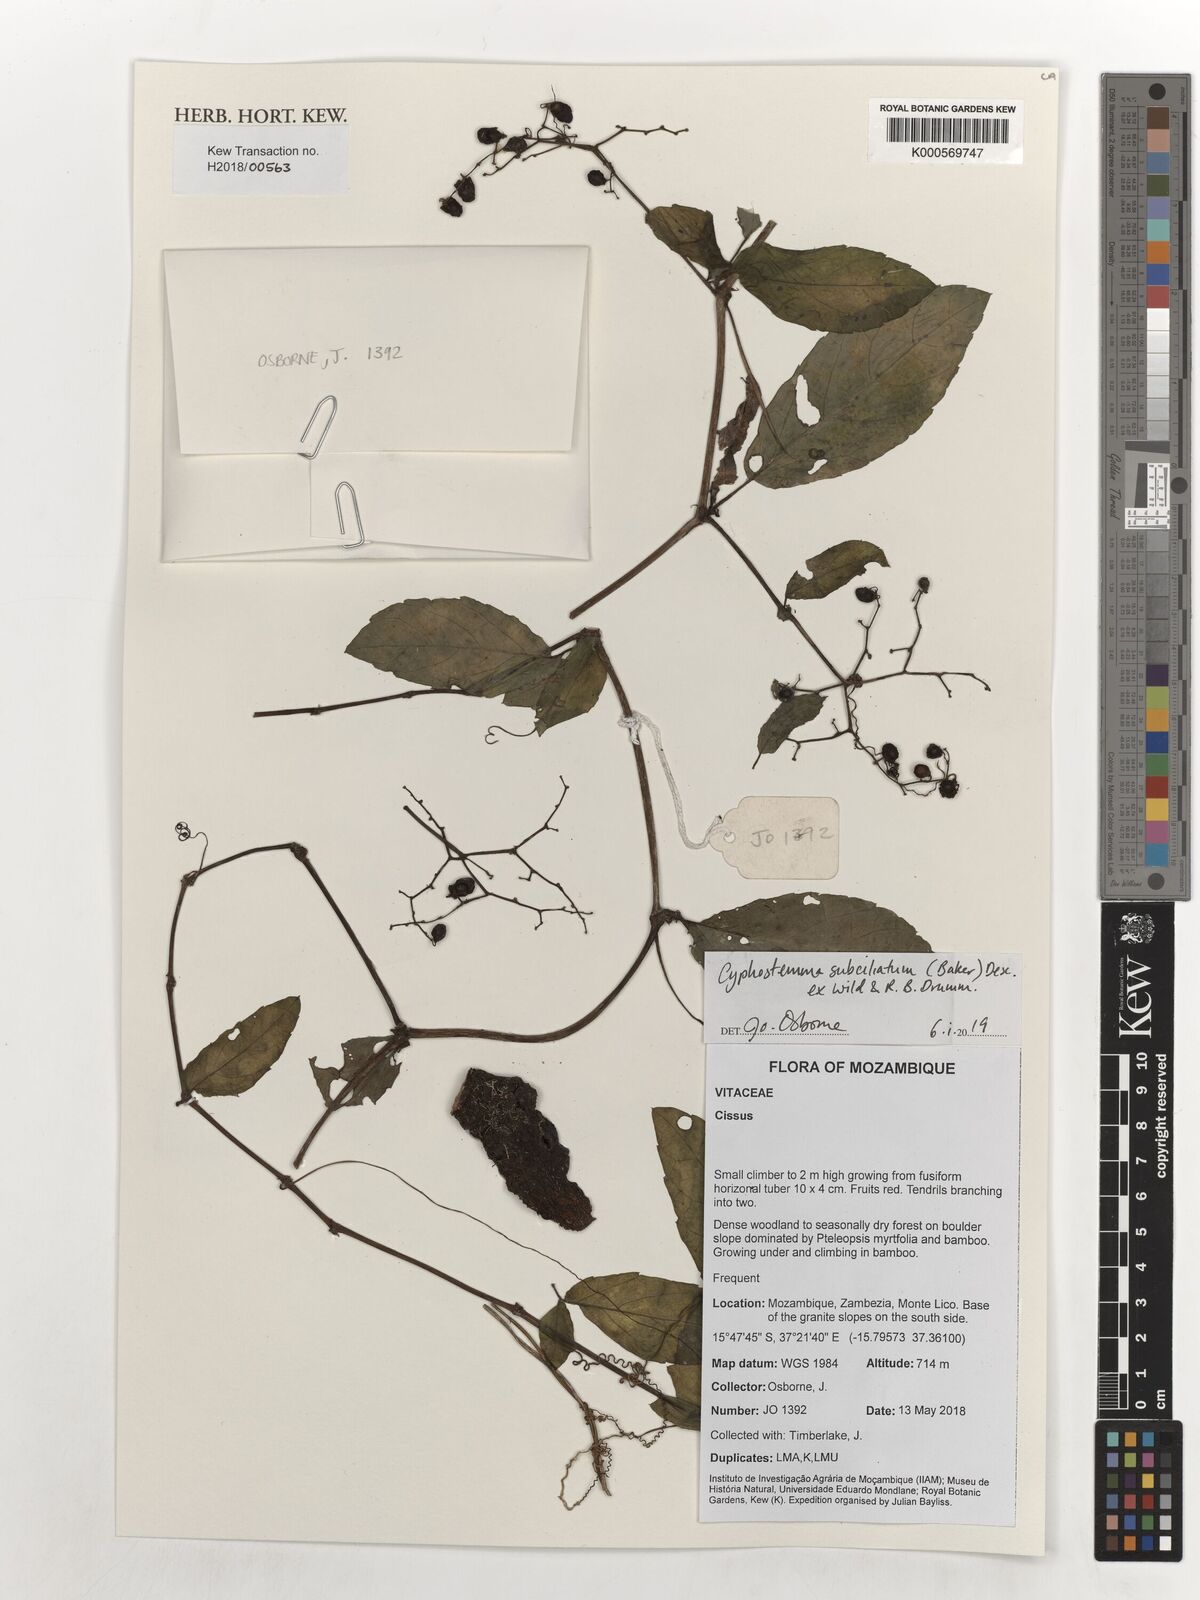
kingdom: Plantae
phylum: Tracheophyta
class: Magnoliopsida
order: Vitales
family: Vitaceae
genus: Cyphostemma
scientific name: Cyphostemma subciliatum
